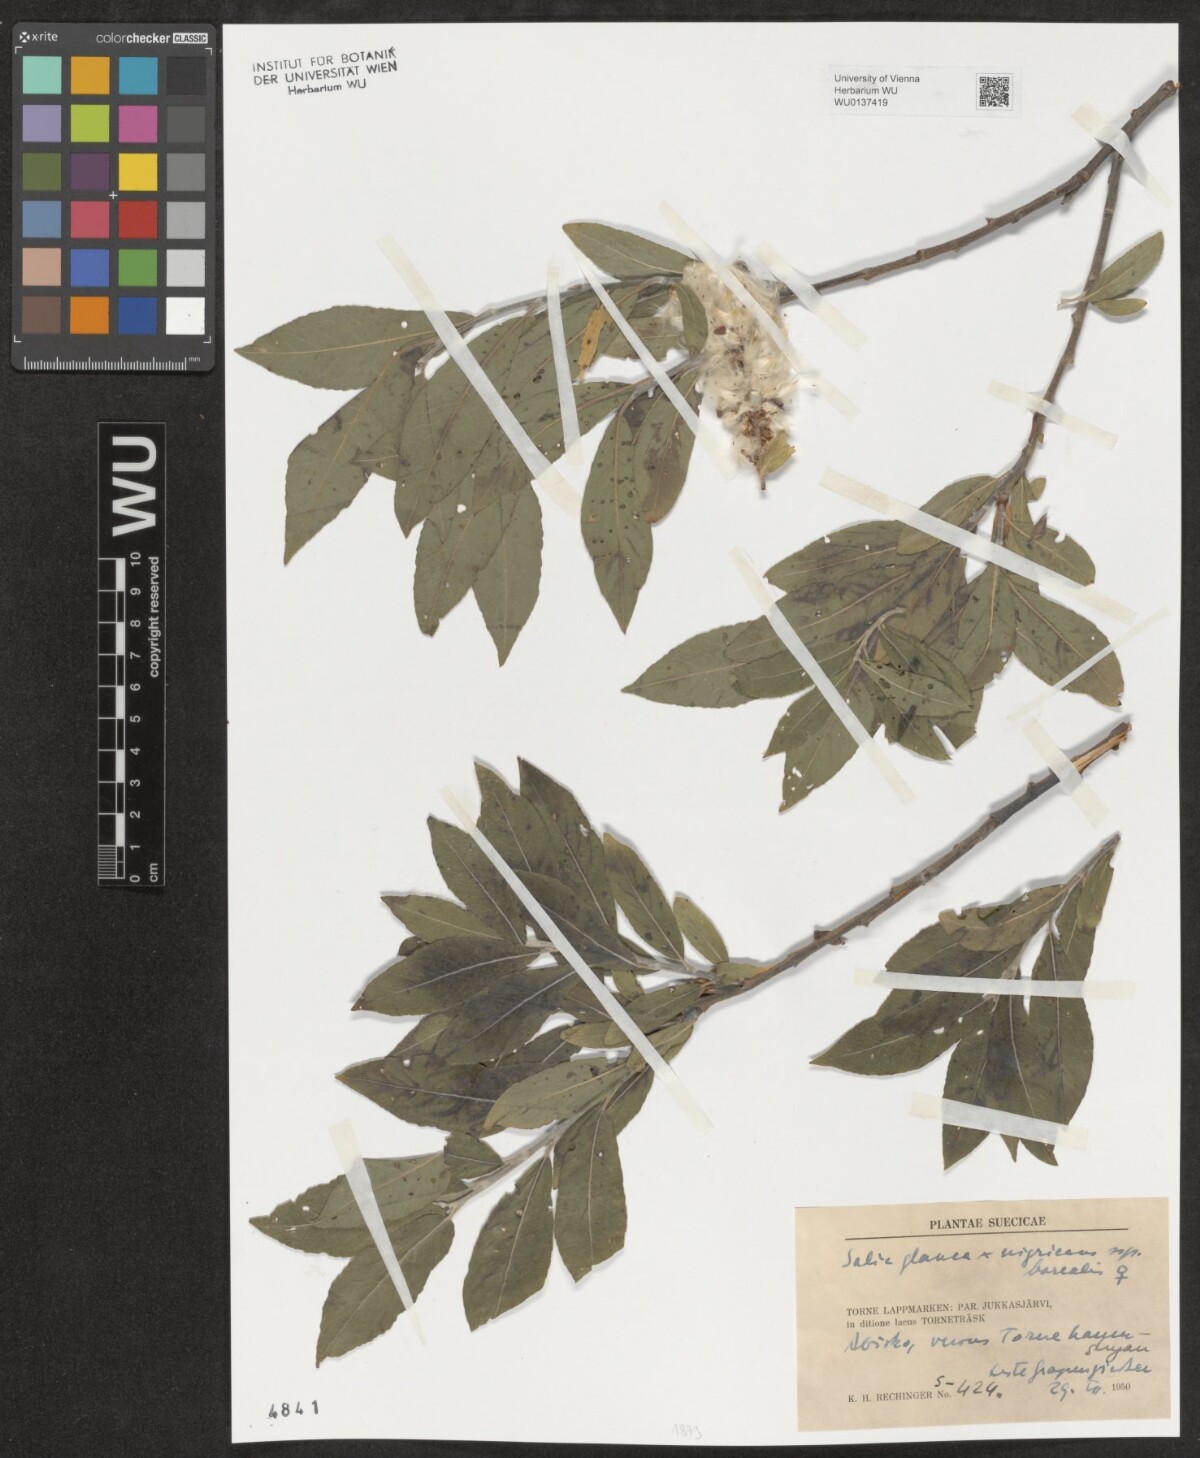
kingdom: Plantae
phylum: Tracheophyta
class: Magnoliopsida
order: Malpighiales
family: Salicaceae
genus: Salix
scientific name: Salix
